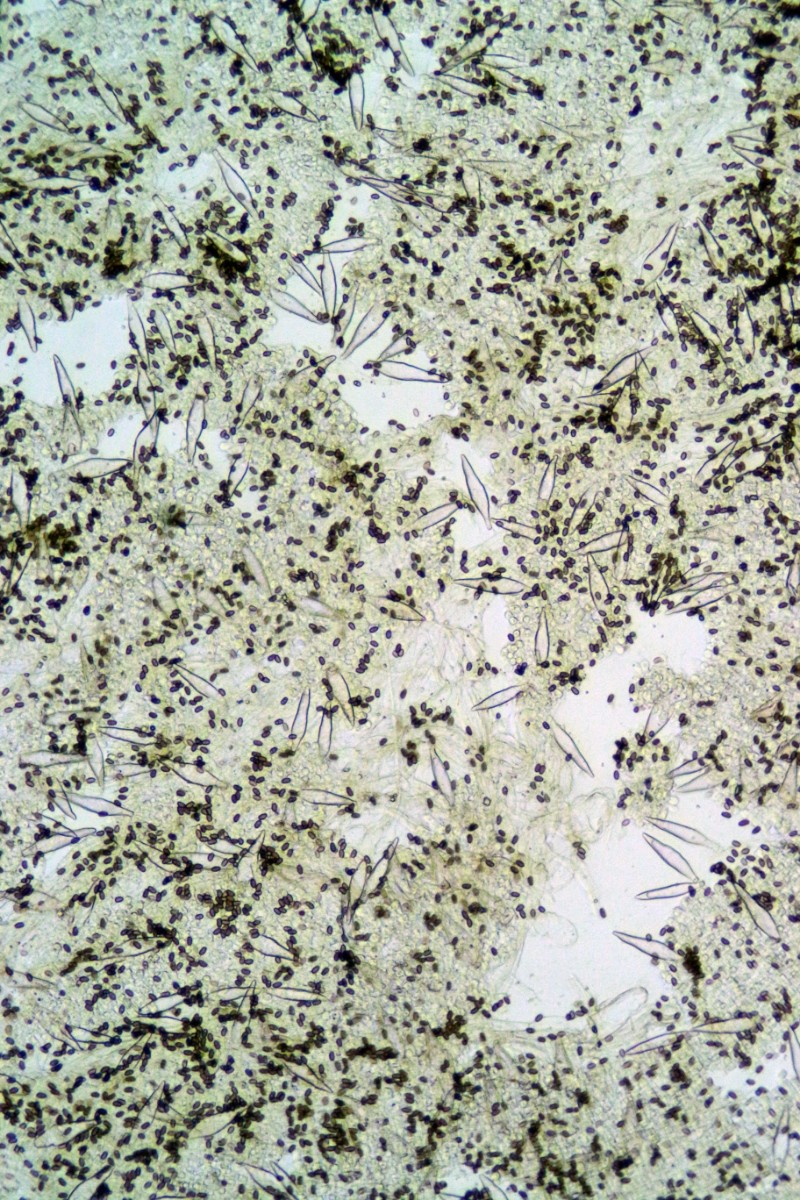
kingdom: Fungi
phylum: Basidiomycota
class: Agaricomycetes
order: Agaricales
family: Psathyrellaceae
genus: Psathyrella
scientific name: Psathyrella spintrigeroides
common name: tandet mørkhat
